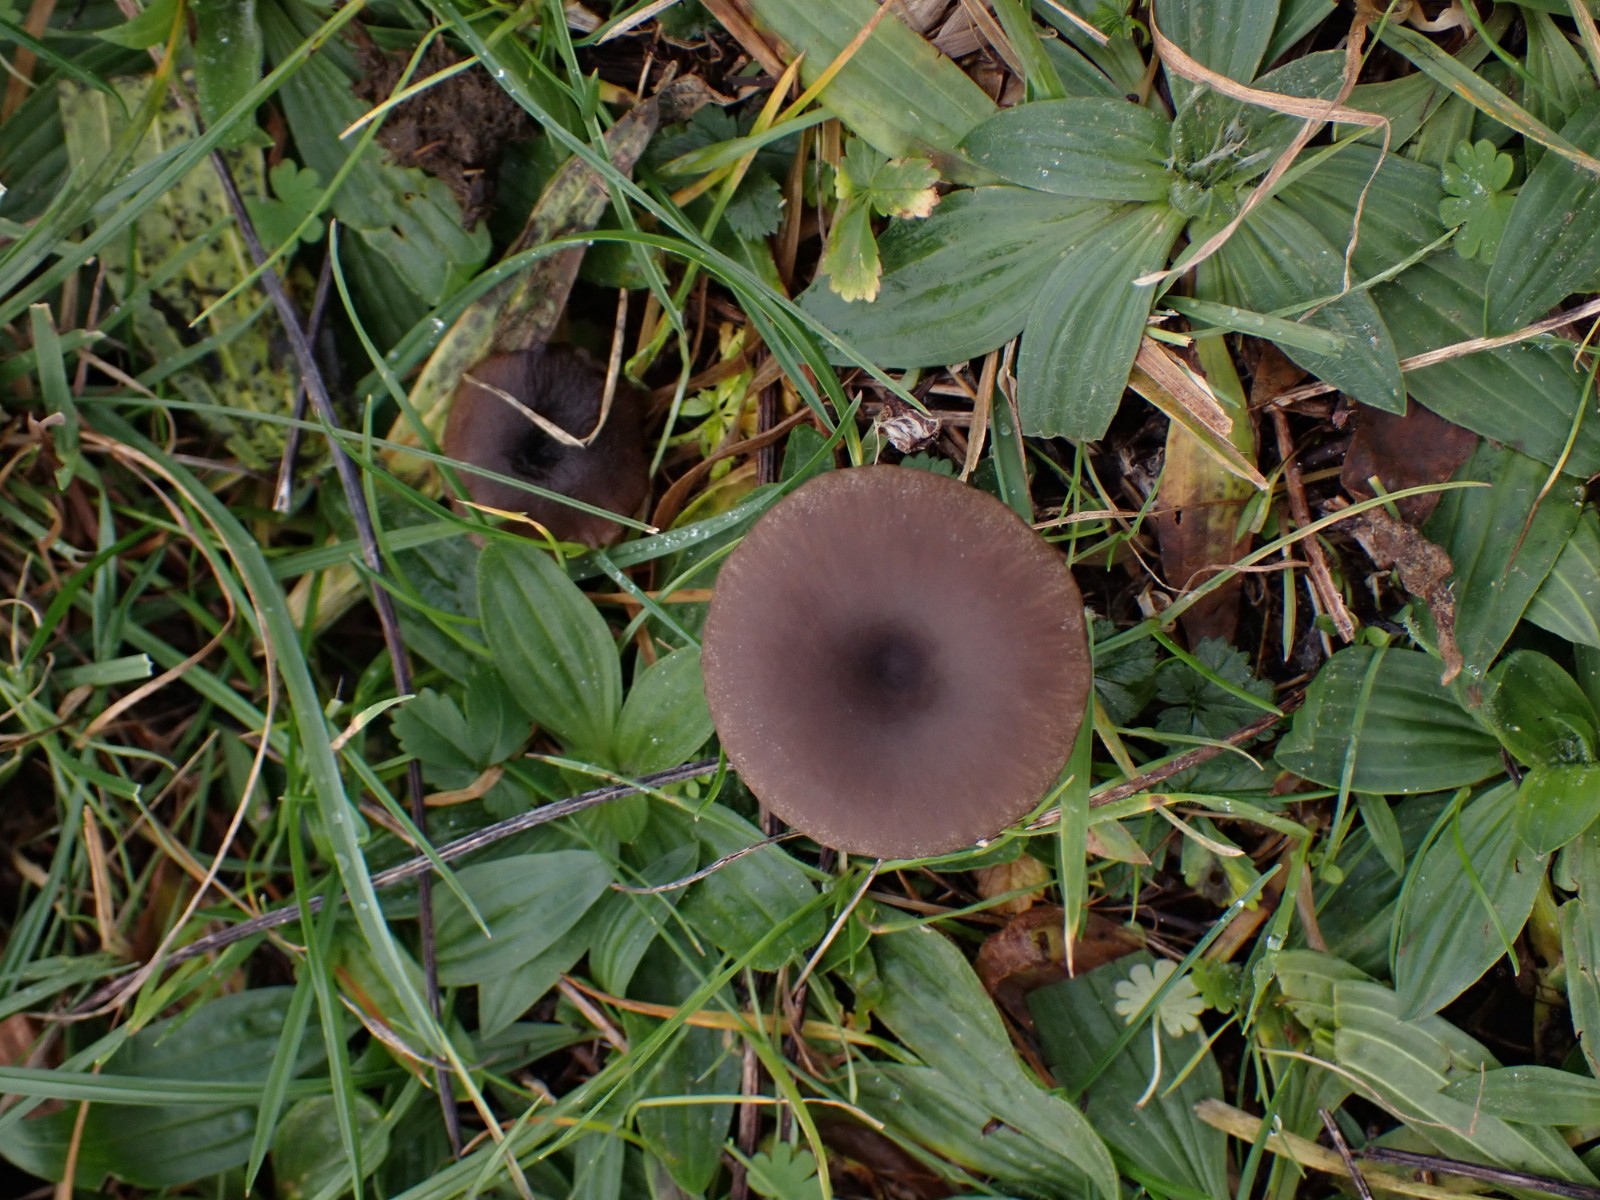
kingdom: Fungi
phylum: Basidiomycota
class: Agaricomycetes
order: Agaricales
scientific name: Agaricales
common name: champignonordenen
